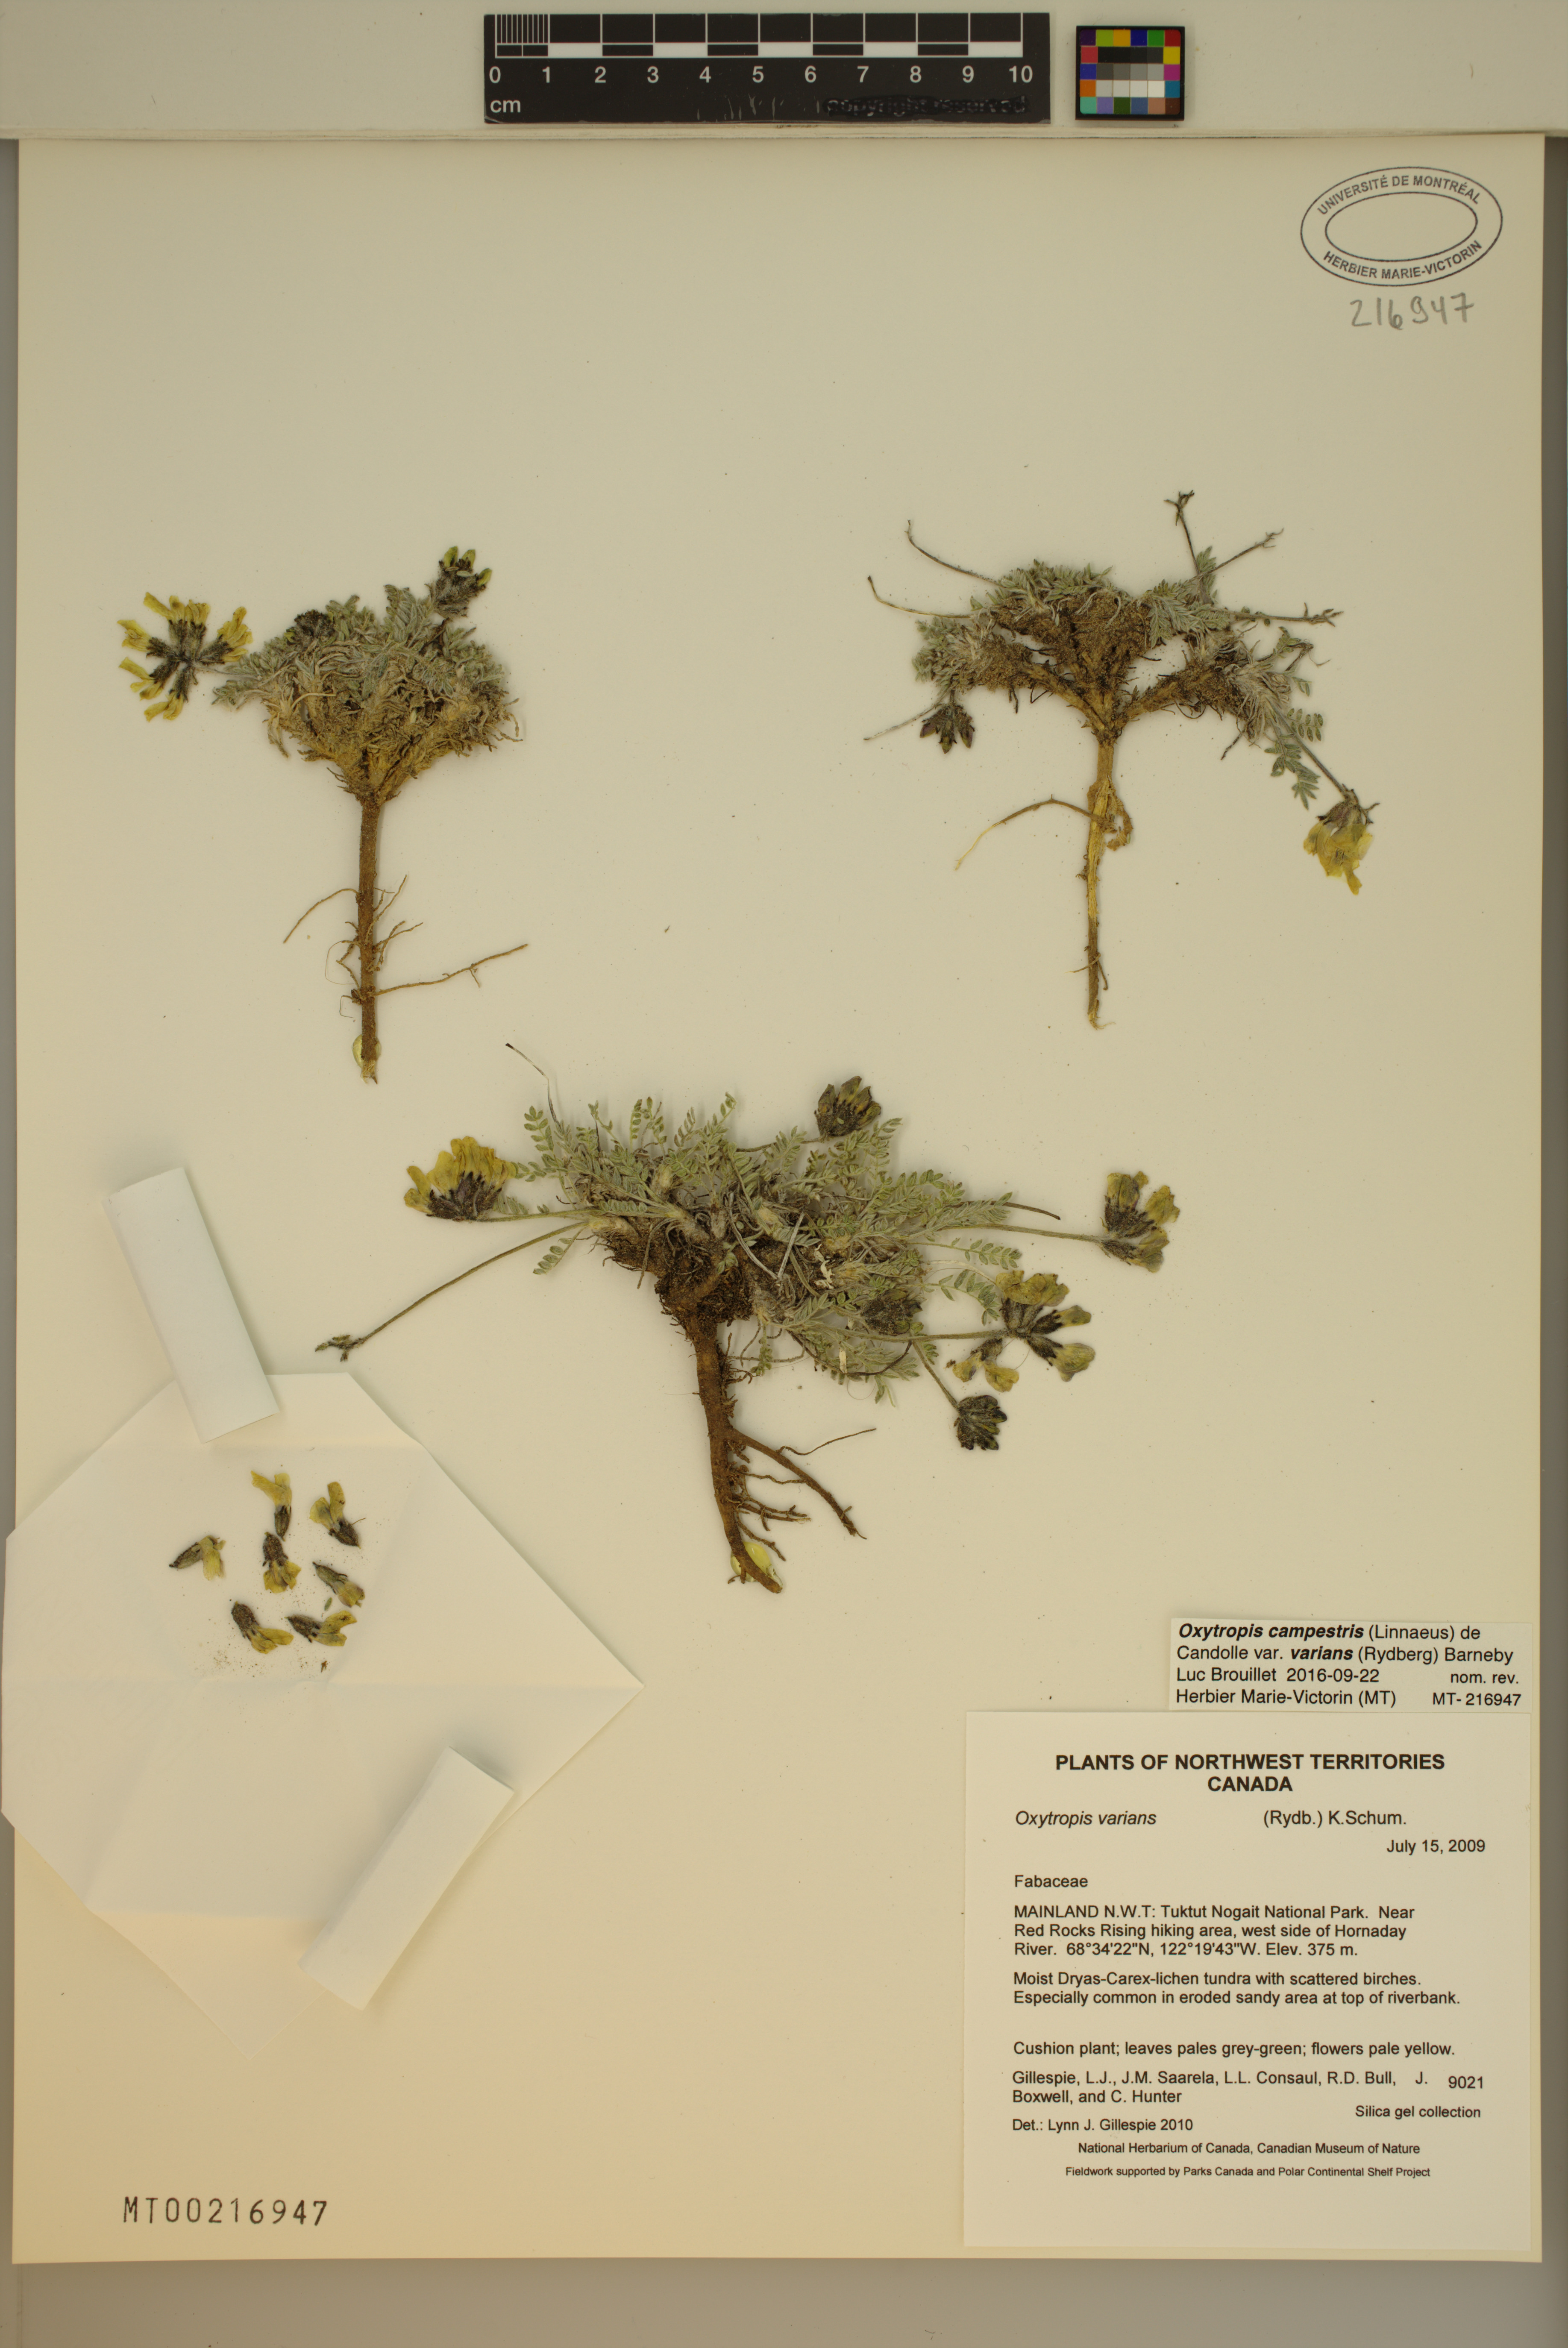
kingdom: Plantae
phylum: Tracheophyta
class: Magnoliopsida
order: Fabales
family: Fabaceae
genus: Oxytropis
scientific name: Oxytropis campestris
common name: Field locoweed
